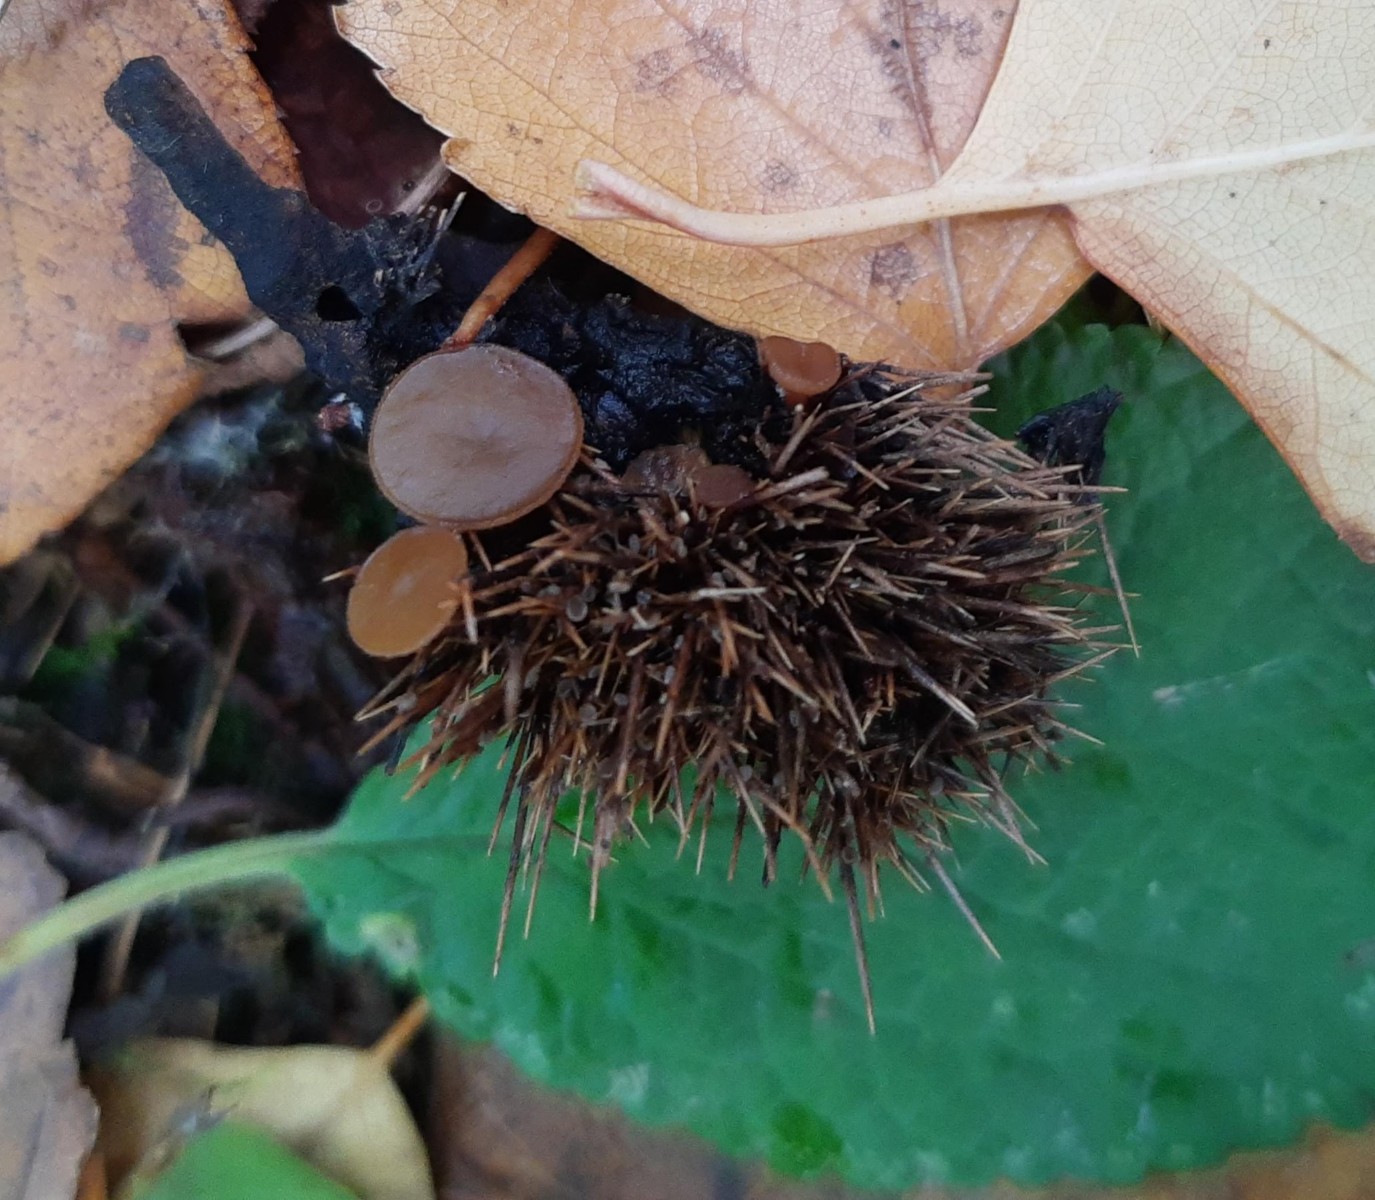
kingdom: Fungi
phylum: Ascomycota
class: Leotiomycetes
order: Helotiales
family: Rutstroemiaceae
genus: Lanzia
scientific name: Lanzia echinophila
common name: kastanie-brunskive
